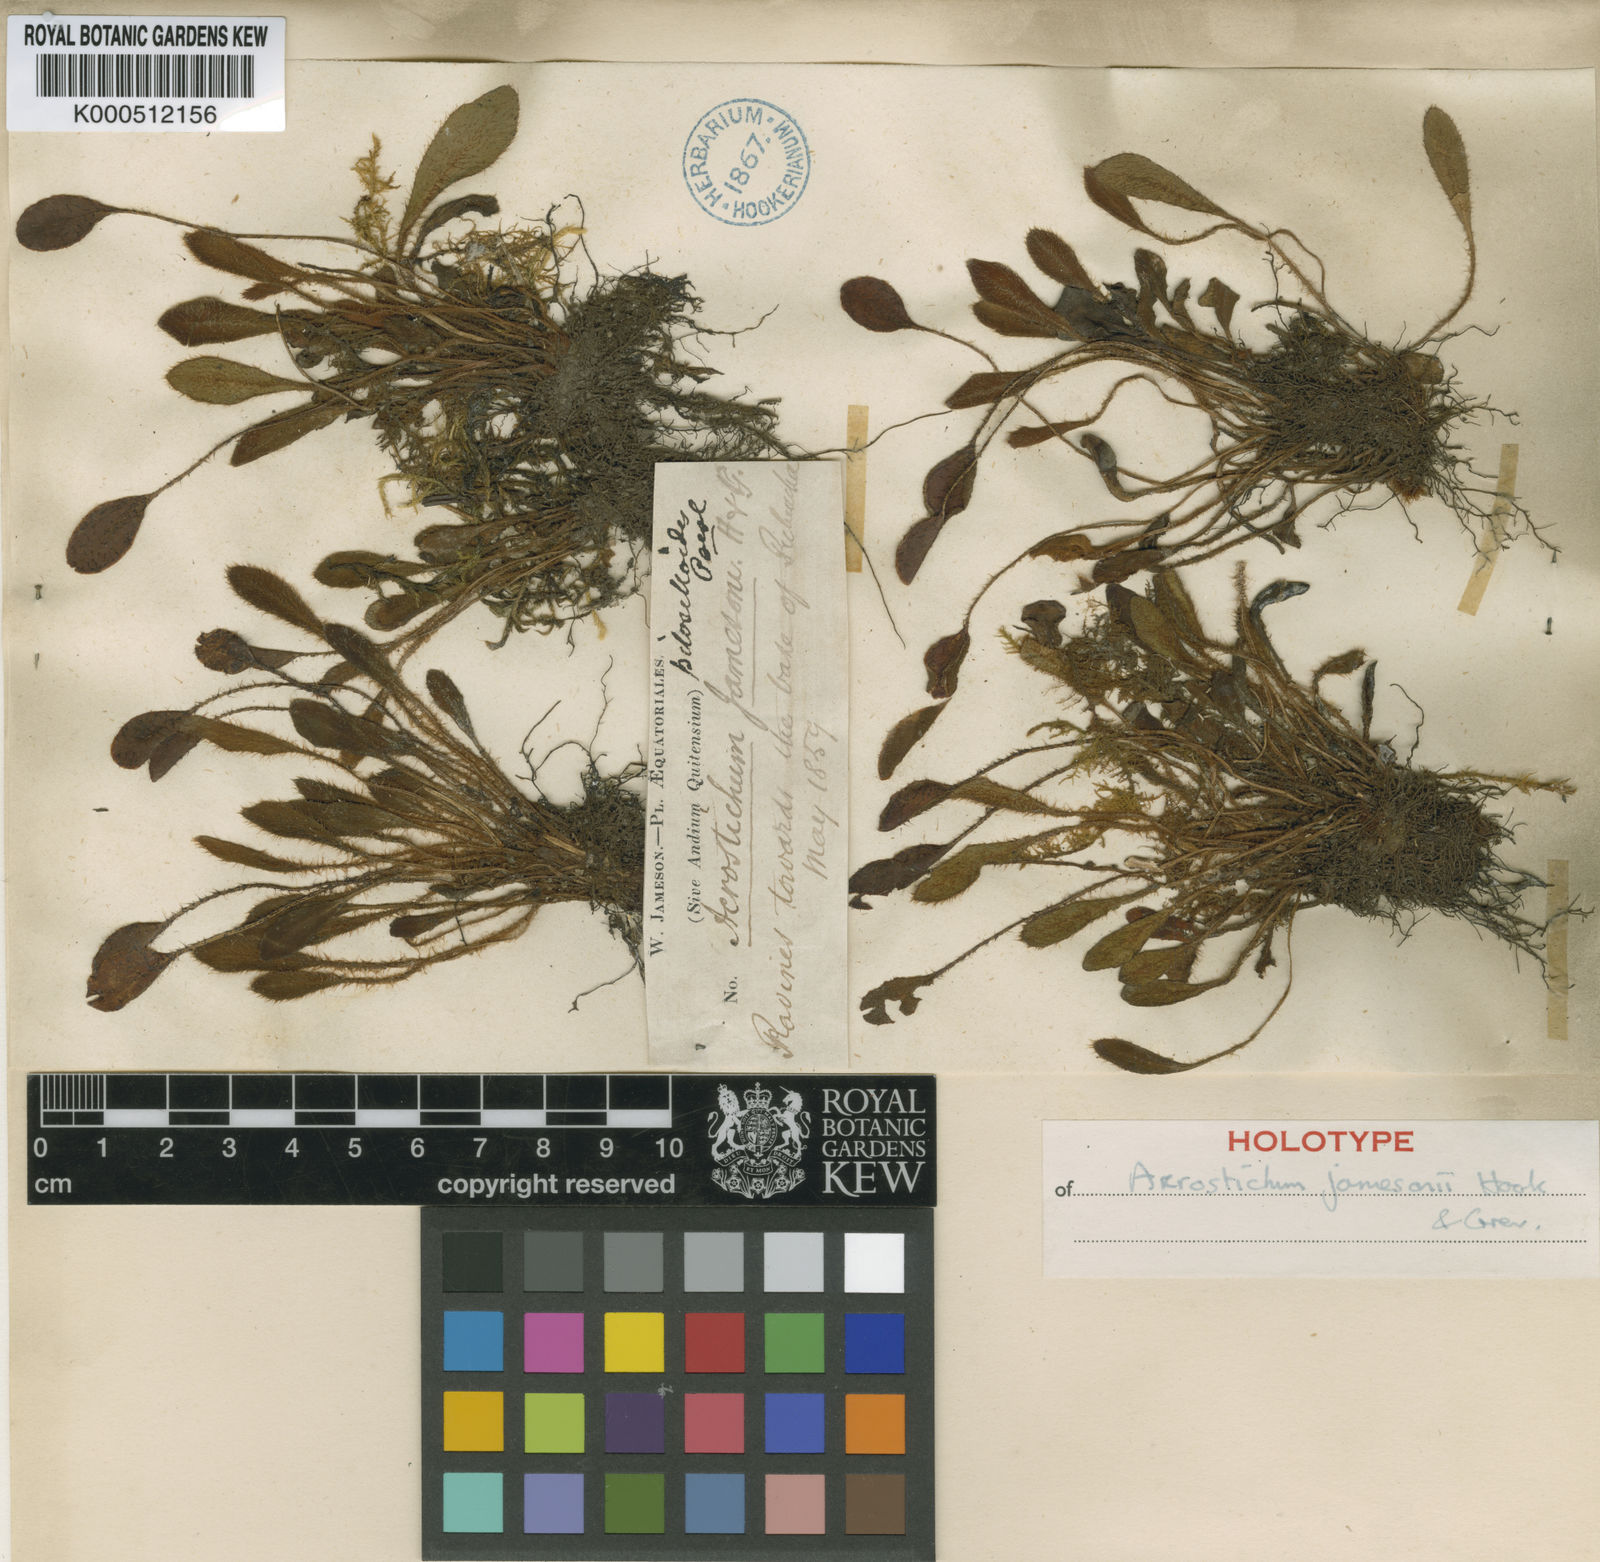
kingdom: Plantae
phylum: Tracheophyta
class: Polypodiopsida
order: Polypodiales
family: Dryopteridaceae
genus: Elaphoglossum
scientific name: Elaphoglossum piloselloides
